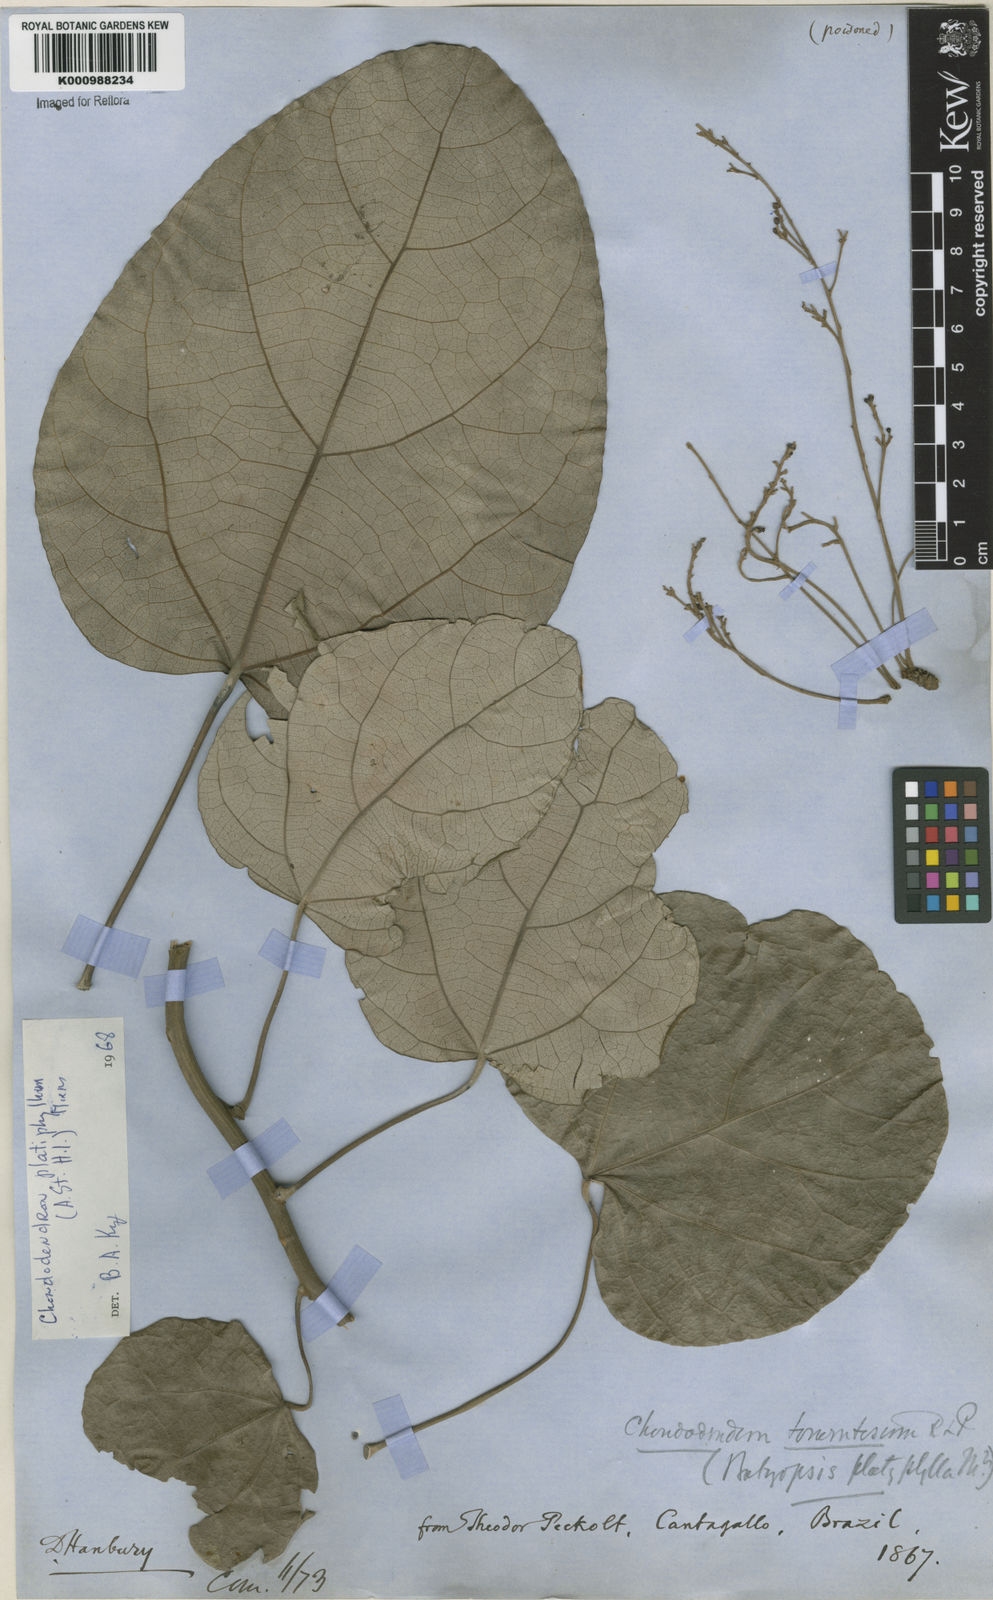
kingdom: Plantae
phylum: Tracheophyta
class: Magnoliopsida
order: Ranunculales
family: Menispermaceae
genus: Chondrodendron
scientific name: Chondrodendron platyphyllum
